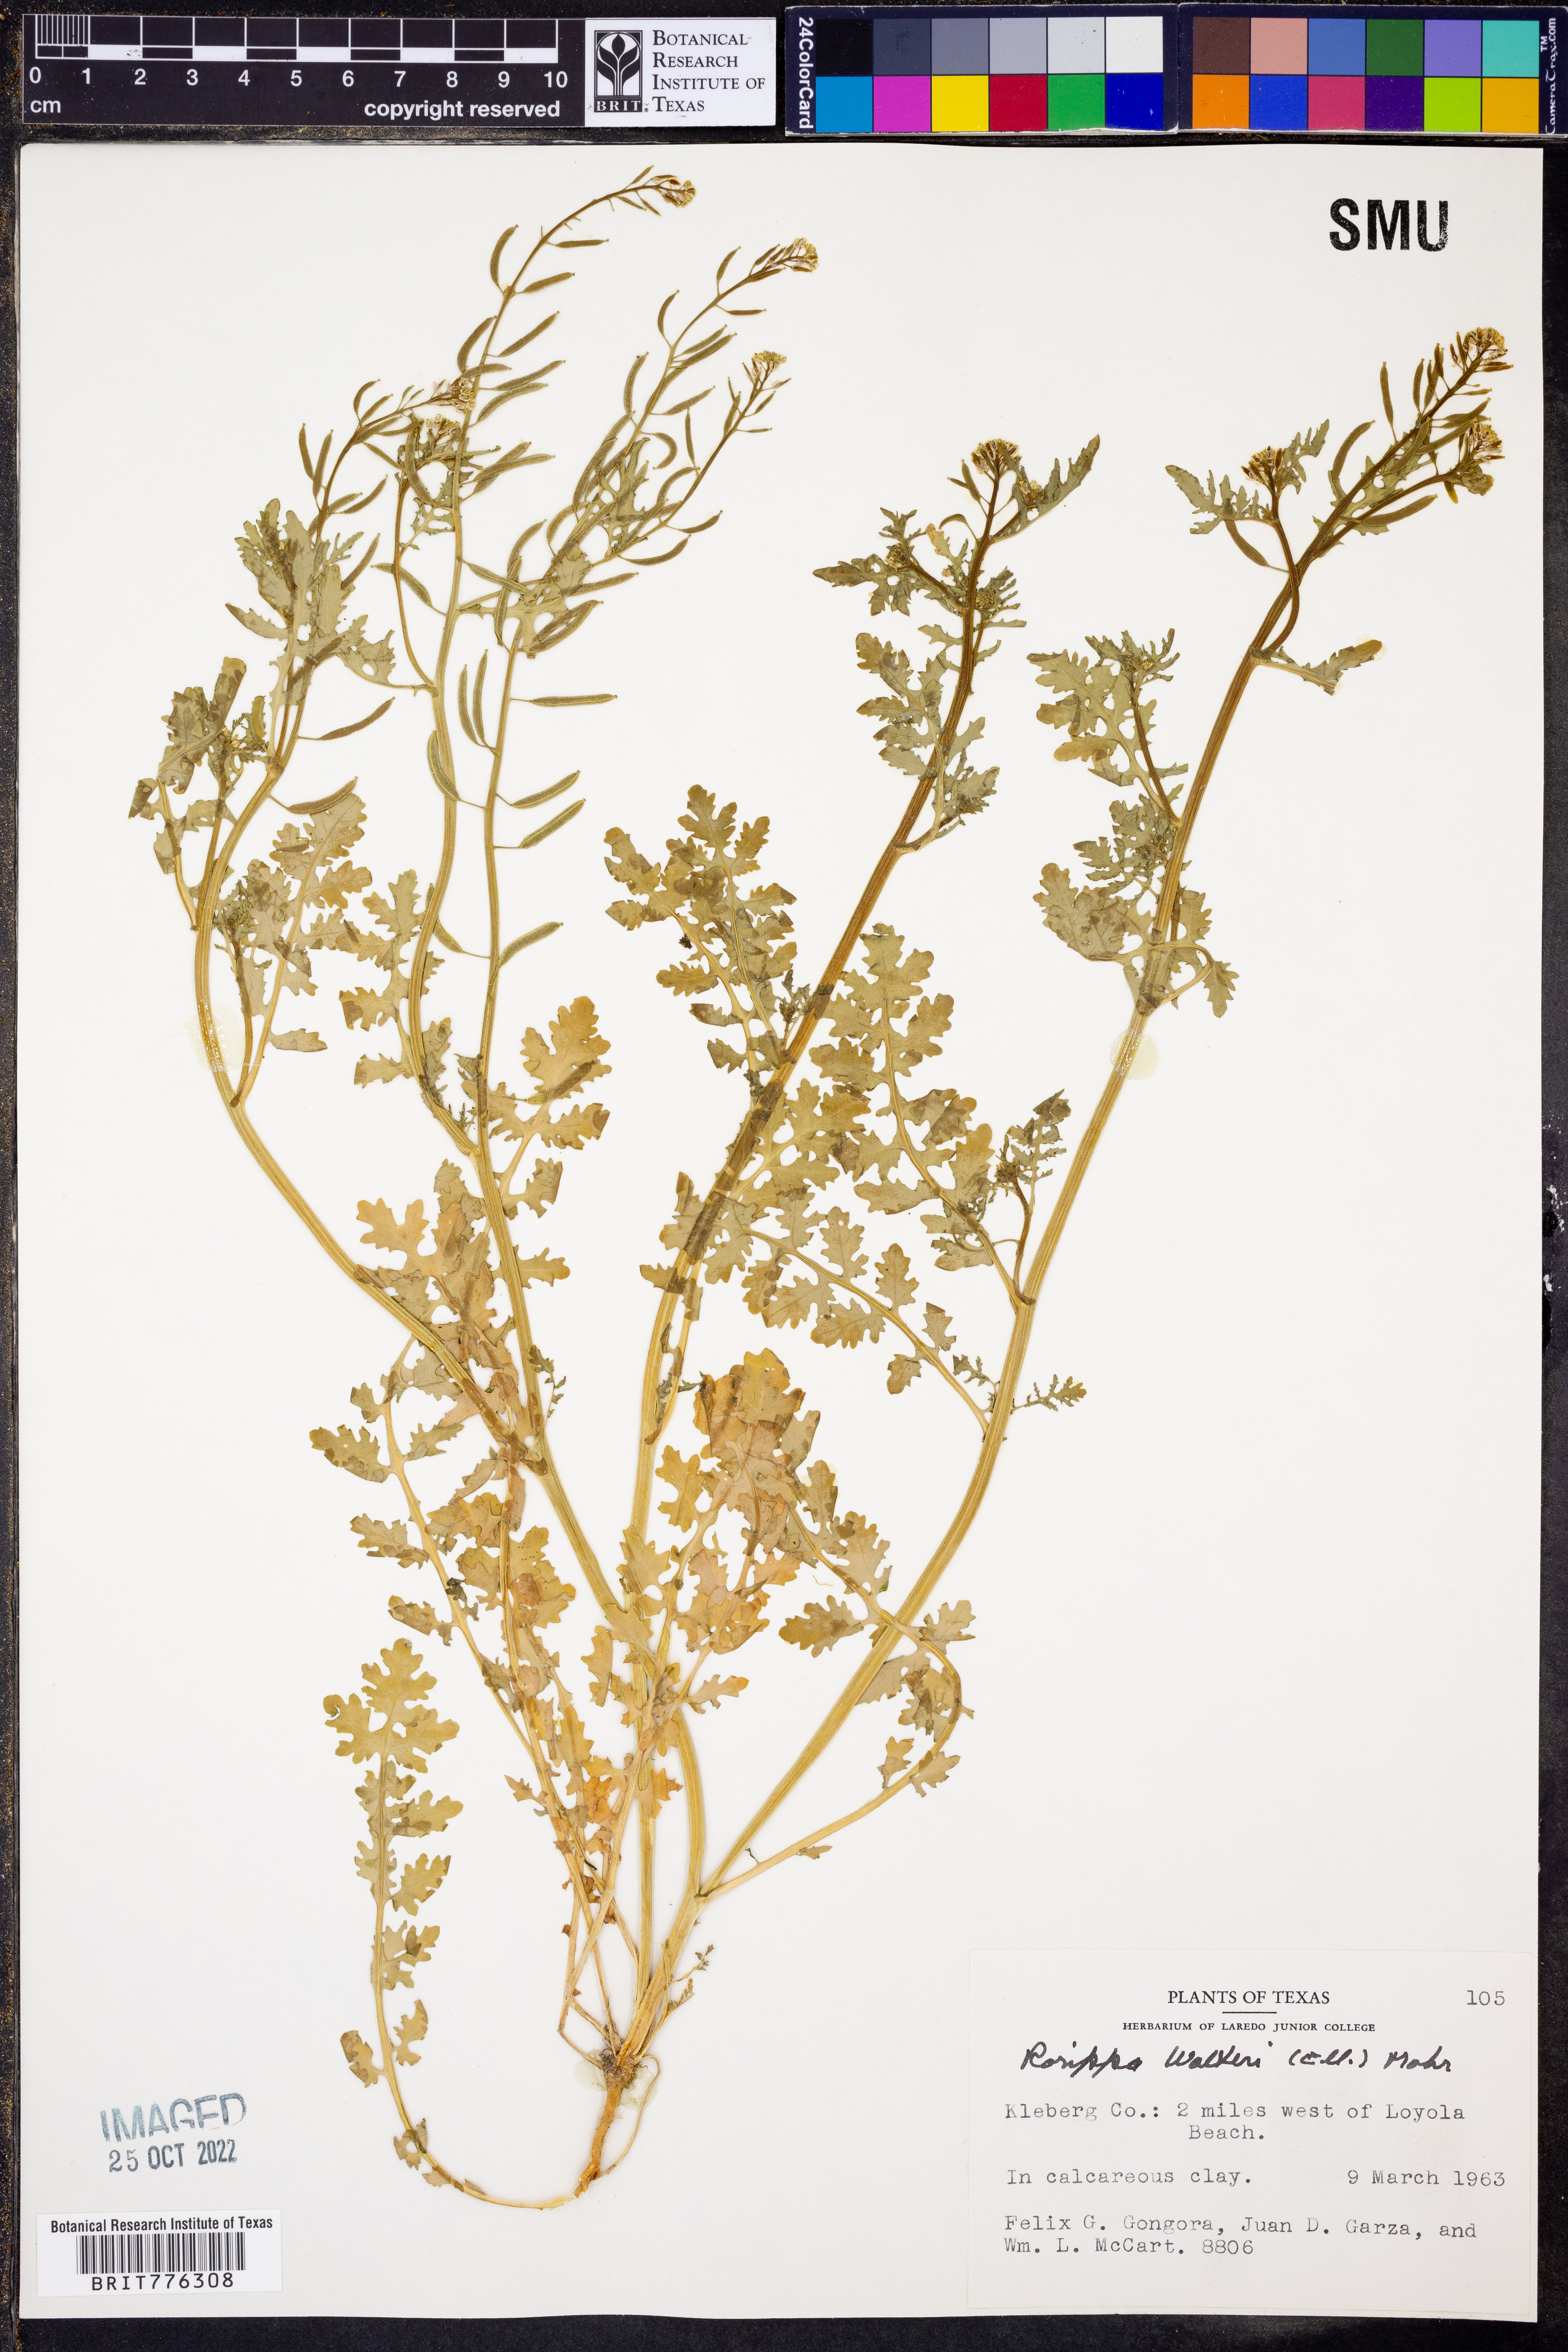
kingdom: Plantae
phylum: Tracheophyta
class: Magnoliopsida
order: Brassicales
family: Brassicaceae
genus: Rorippa
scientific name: Rorippa teres
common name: Southern marsh yellowcress
